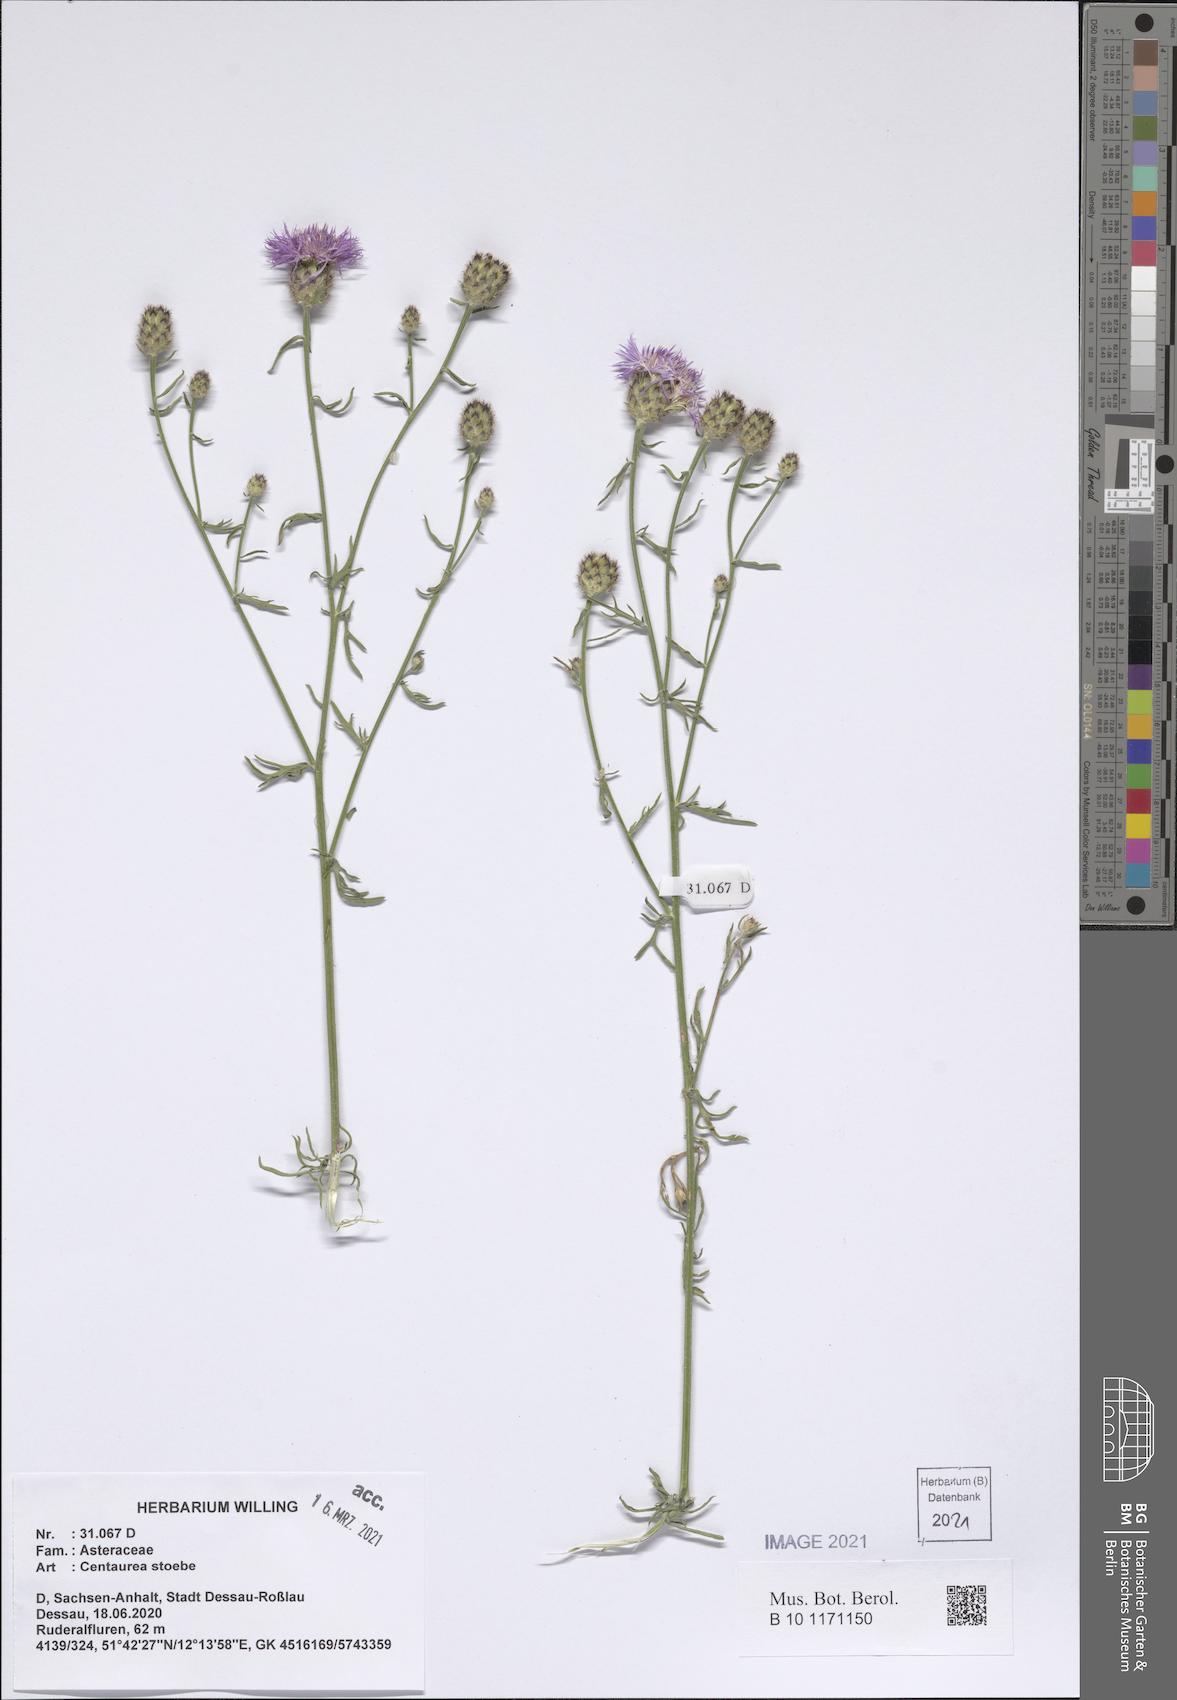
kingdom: Plantae
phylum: Tracheophyta
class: Magnoliopsida
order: Asterales
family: Asteraceae
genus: Centaurea
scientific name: Centaurea stoebe
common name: Spotted knapweed
